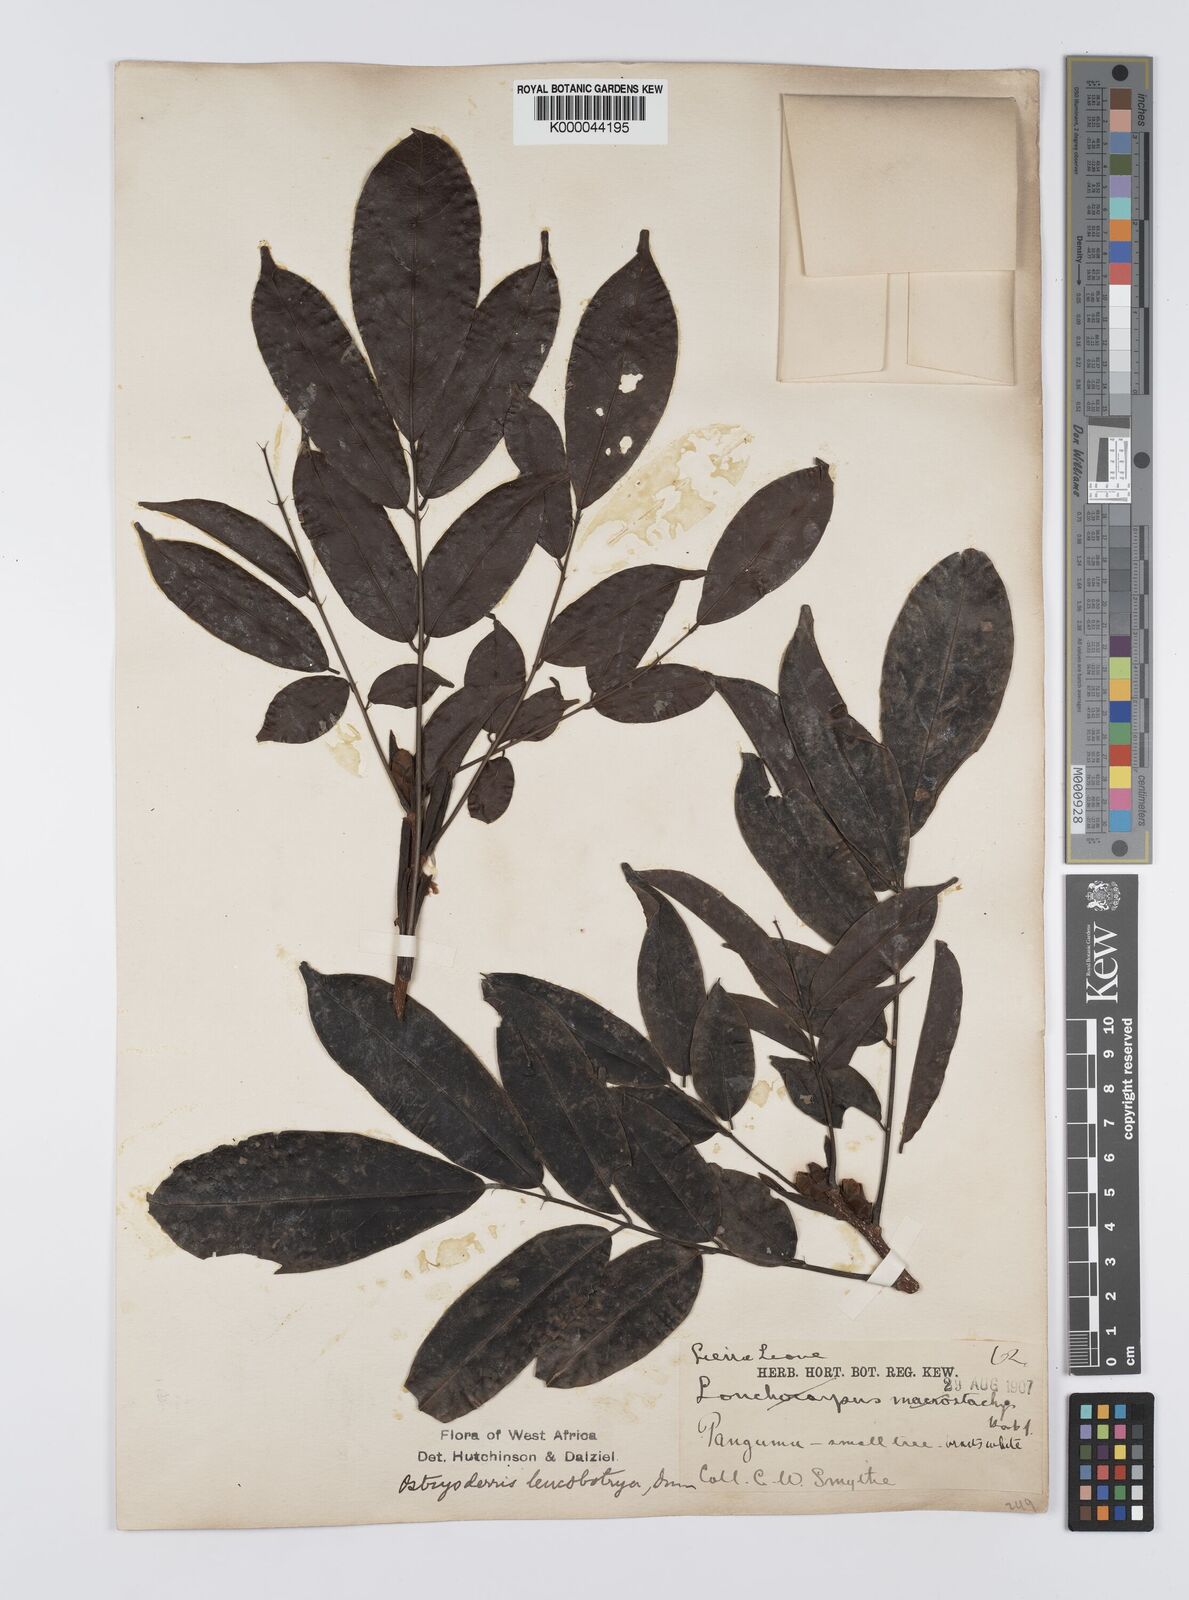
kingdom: Plantae
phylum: Tracheophyta
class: Magnoliopsida
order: Fabales
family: Fabaceae
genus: Aganope
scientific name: Aganope leucobotrya
